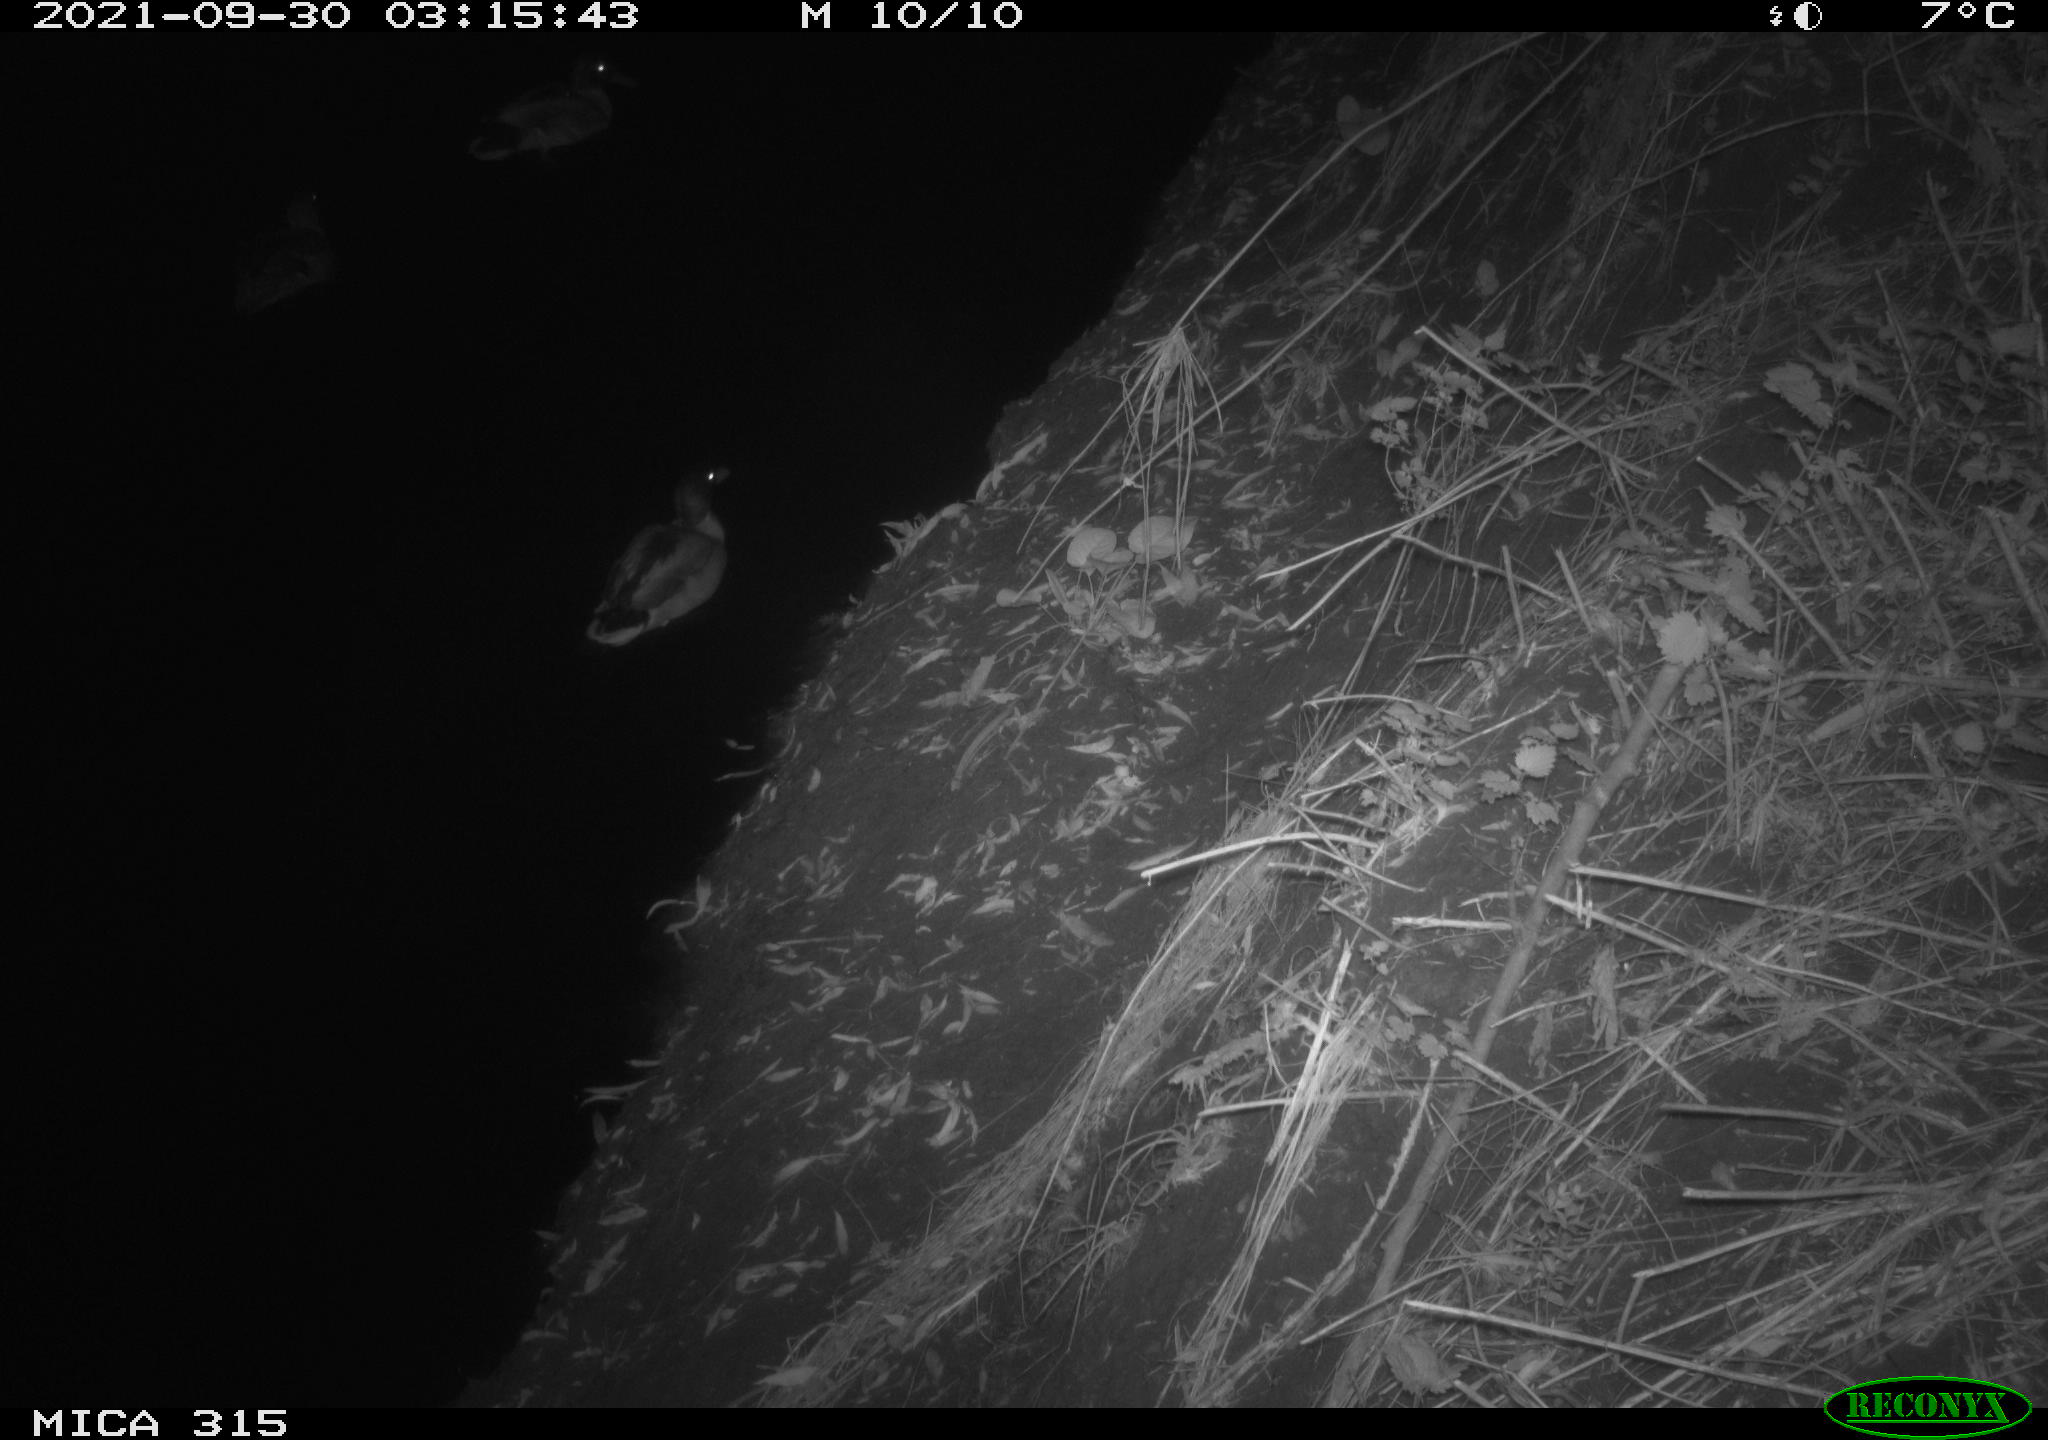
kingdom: Animalia
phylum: Chordata
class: Aves
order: Anseriformes
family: Anatidae
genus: Anas
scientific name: Anas platyrhynchos
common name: Mallard
